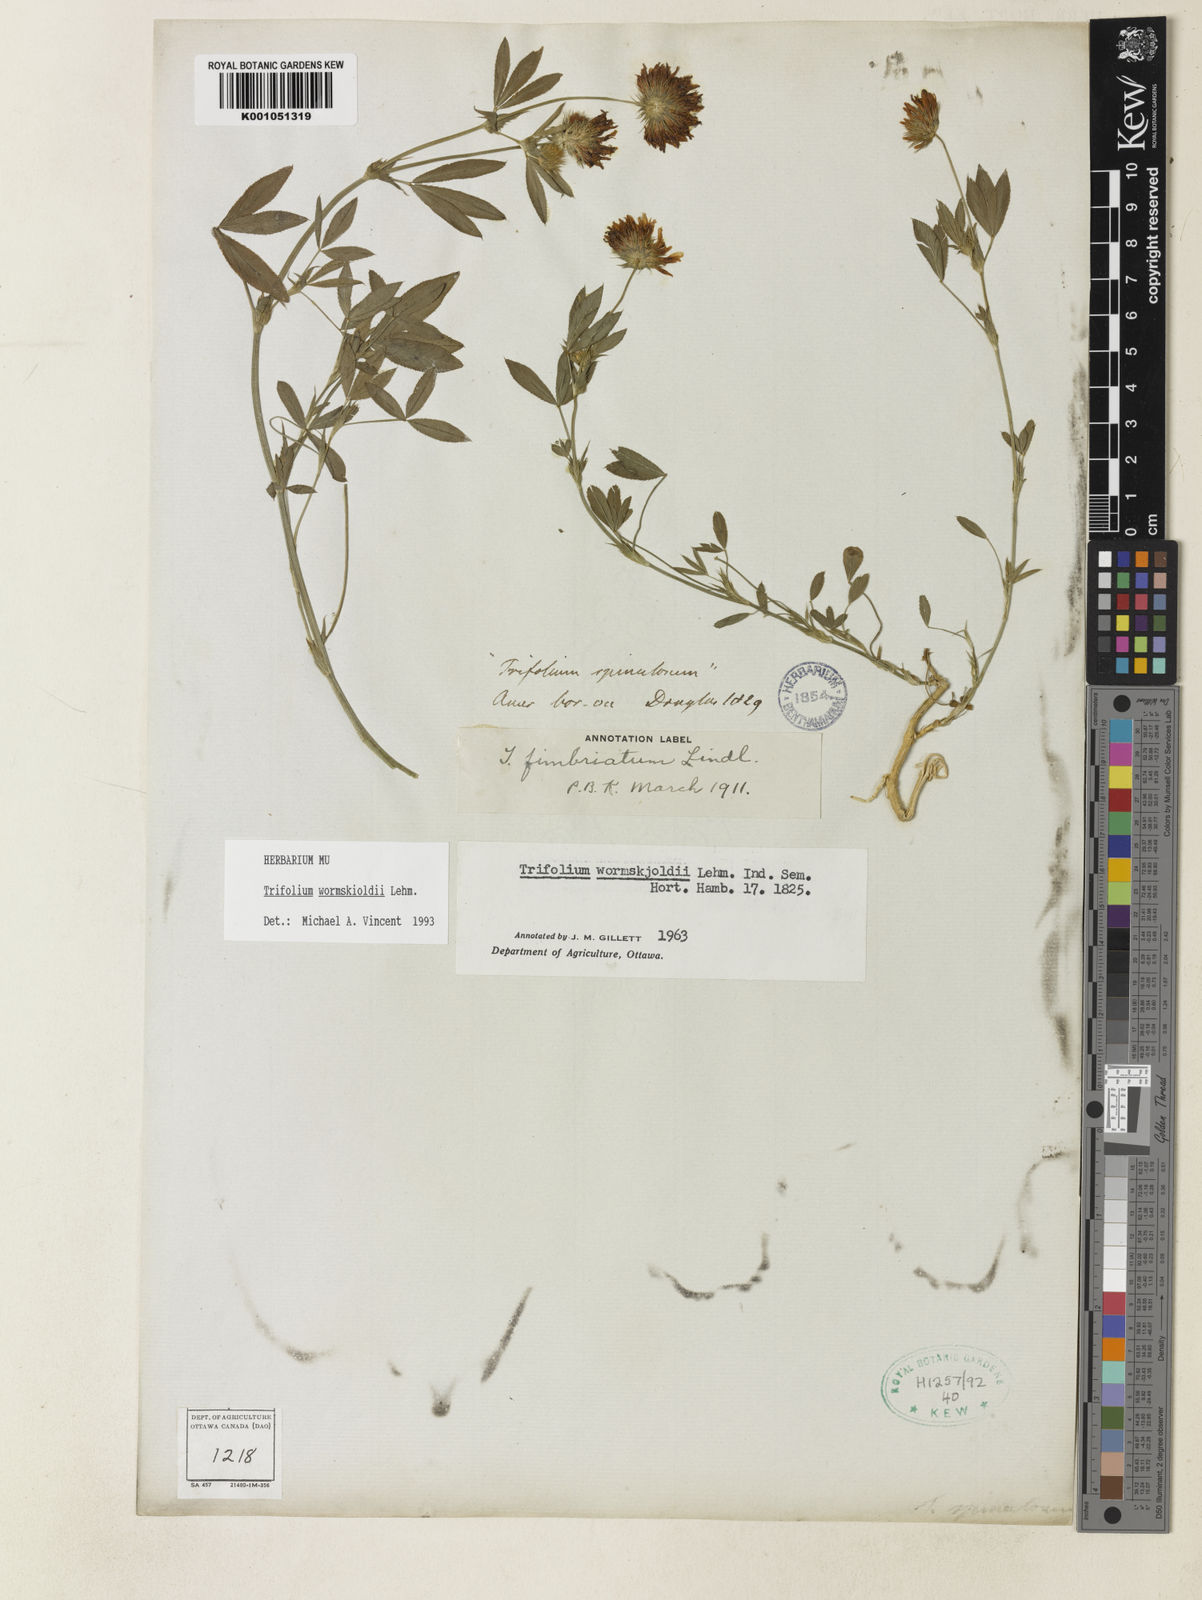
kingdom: Plantae
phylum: Tracheophyta
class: Magnoliopsida
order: Fabales
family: Fabaceae
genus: Trifolium
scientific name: Trifolium willdenovii
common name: Tomcat clover
